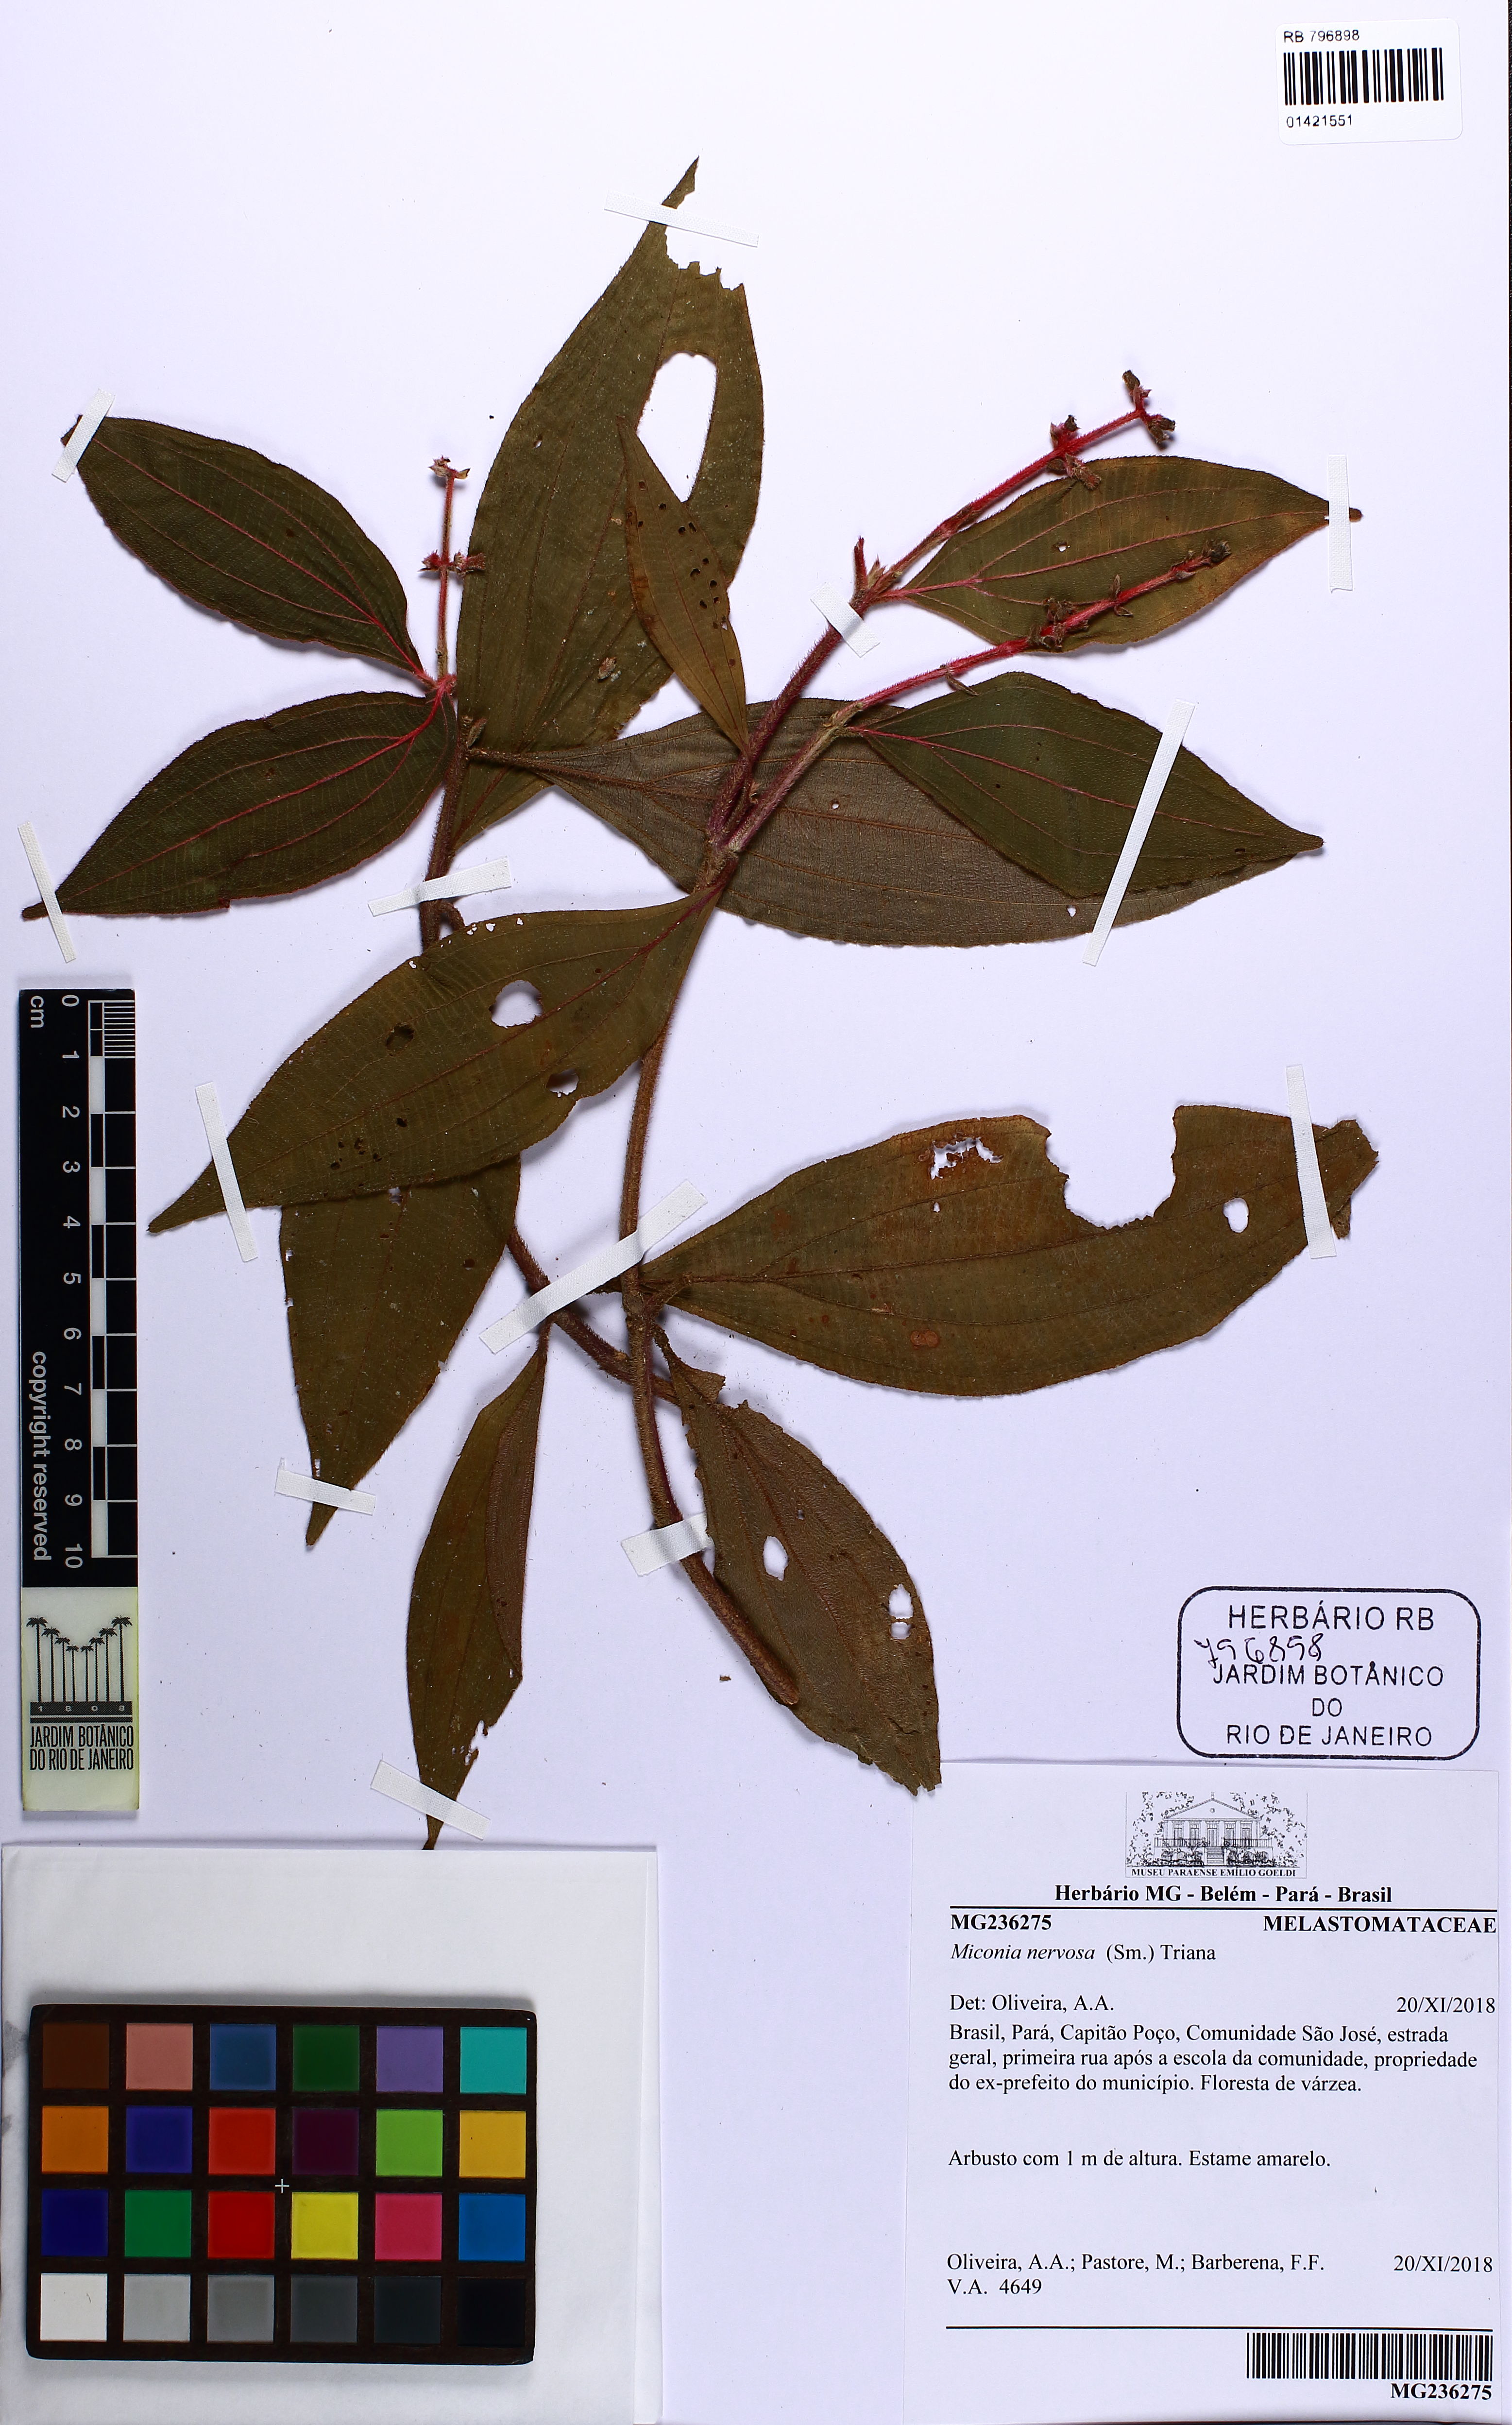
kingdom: Plantae
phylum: Tracheophyta
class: Magnoliopsida
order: Myrtales
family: Melastomataceae
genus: Miconia
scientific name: Miconia nervosa
